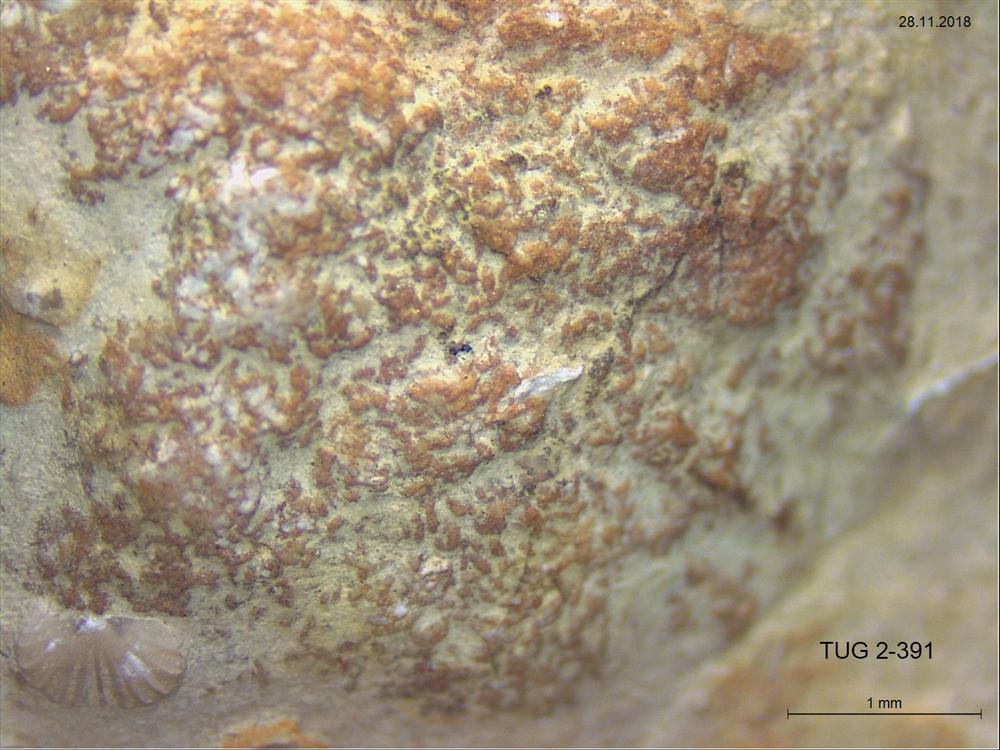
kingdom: Animalia
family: Coprulidae
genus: Coprulus
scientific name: Coprulus
